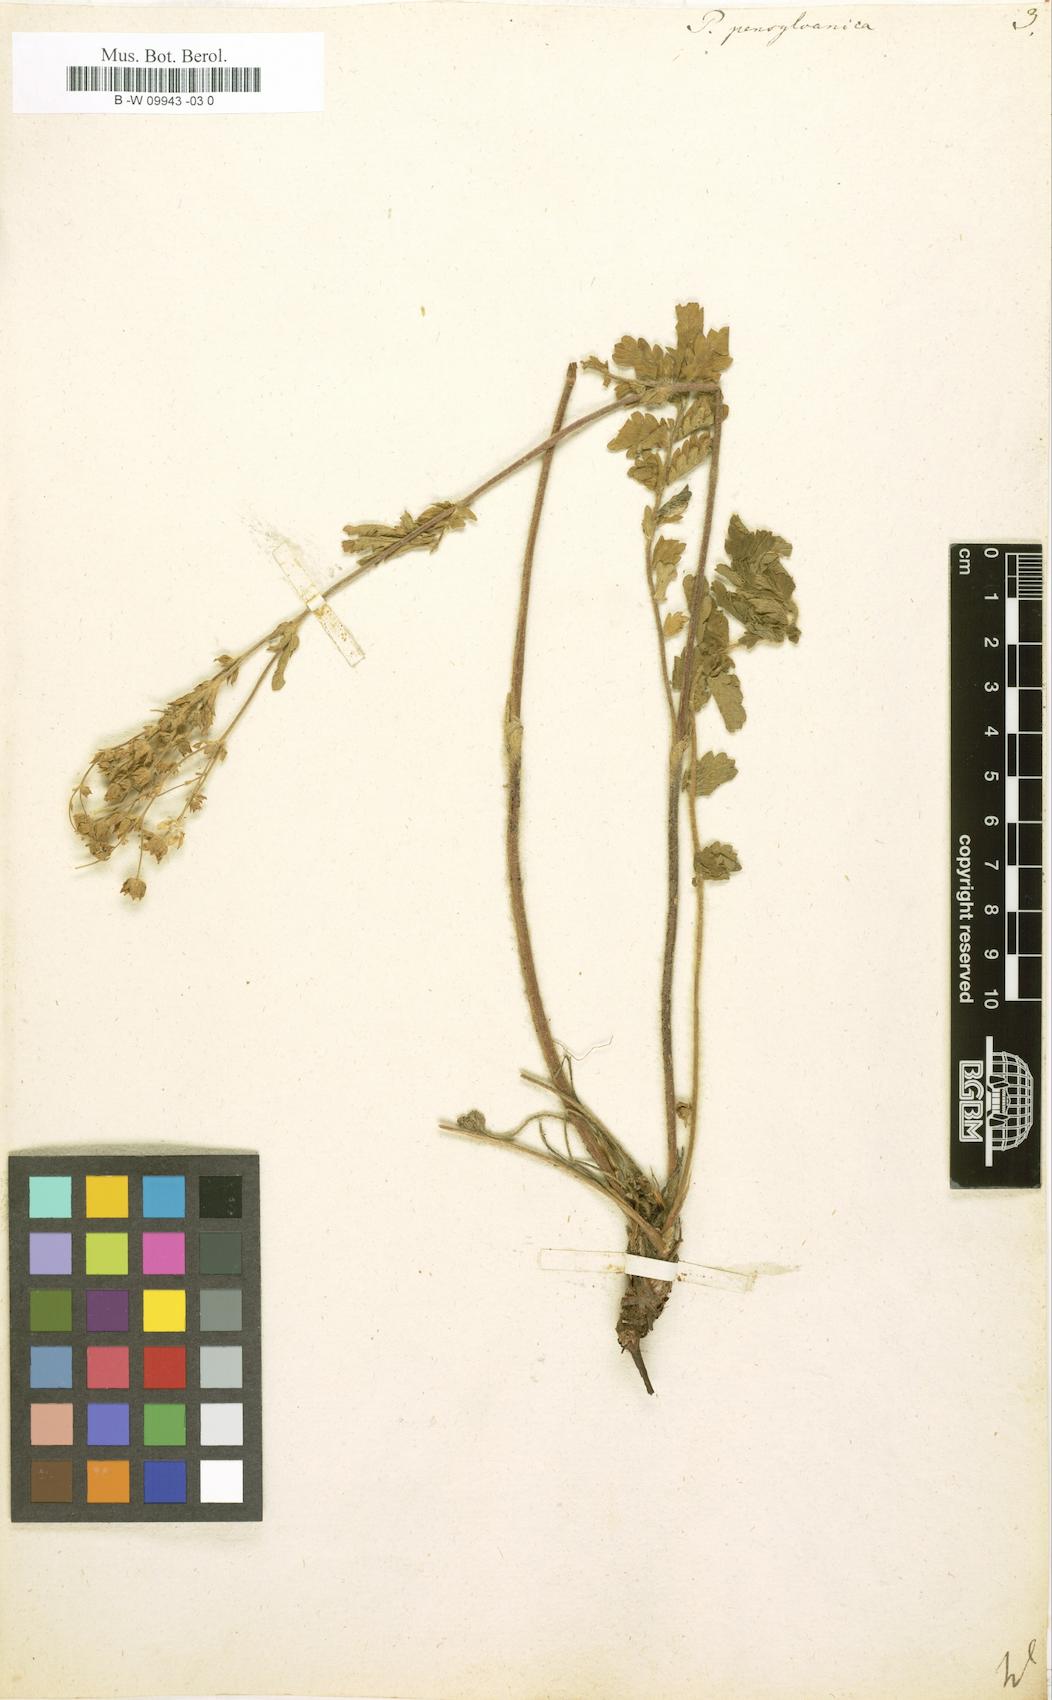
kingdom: Plantae
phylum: Tracheophyta
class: Magnoliopsida
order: Rosales
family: Rosaceae
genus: Potentilla
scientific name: Potentilla pensylvanica
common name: Pennsylvania cinquefoil
